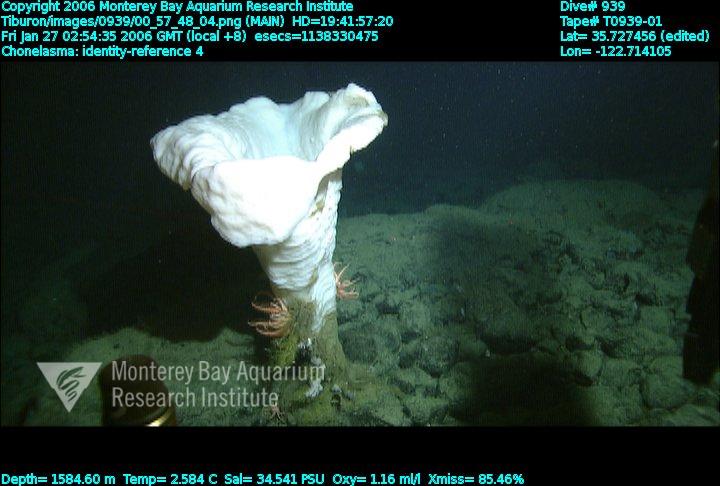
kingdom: Animalia
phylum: Porifera
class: Hexactinellida
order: Sceptrulophora
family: Euretidae
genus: Chonelasma
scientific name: Chonelasma
